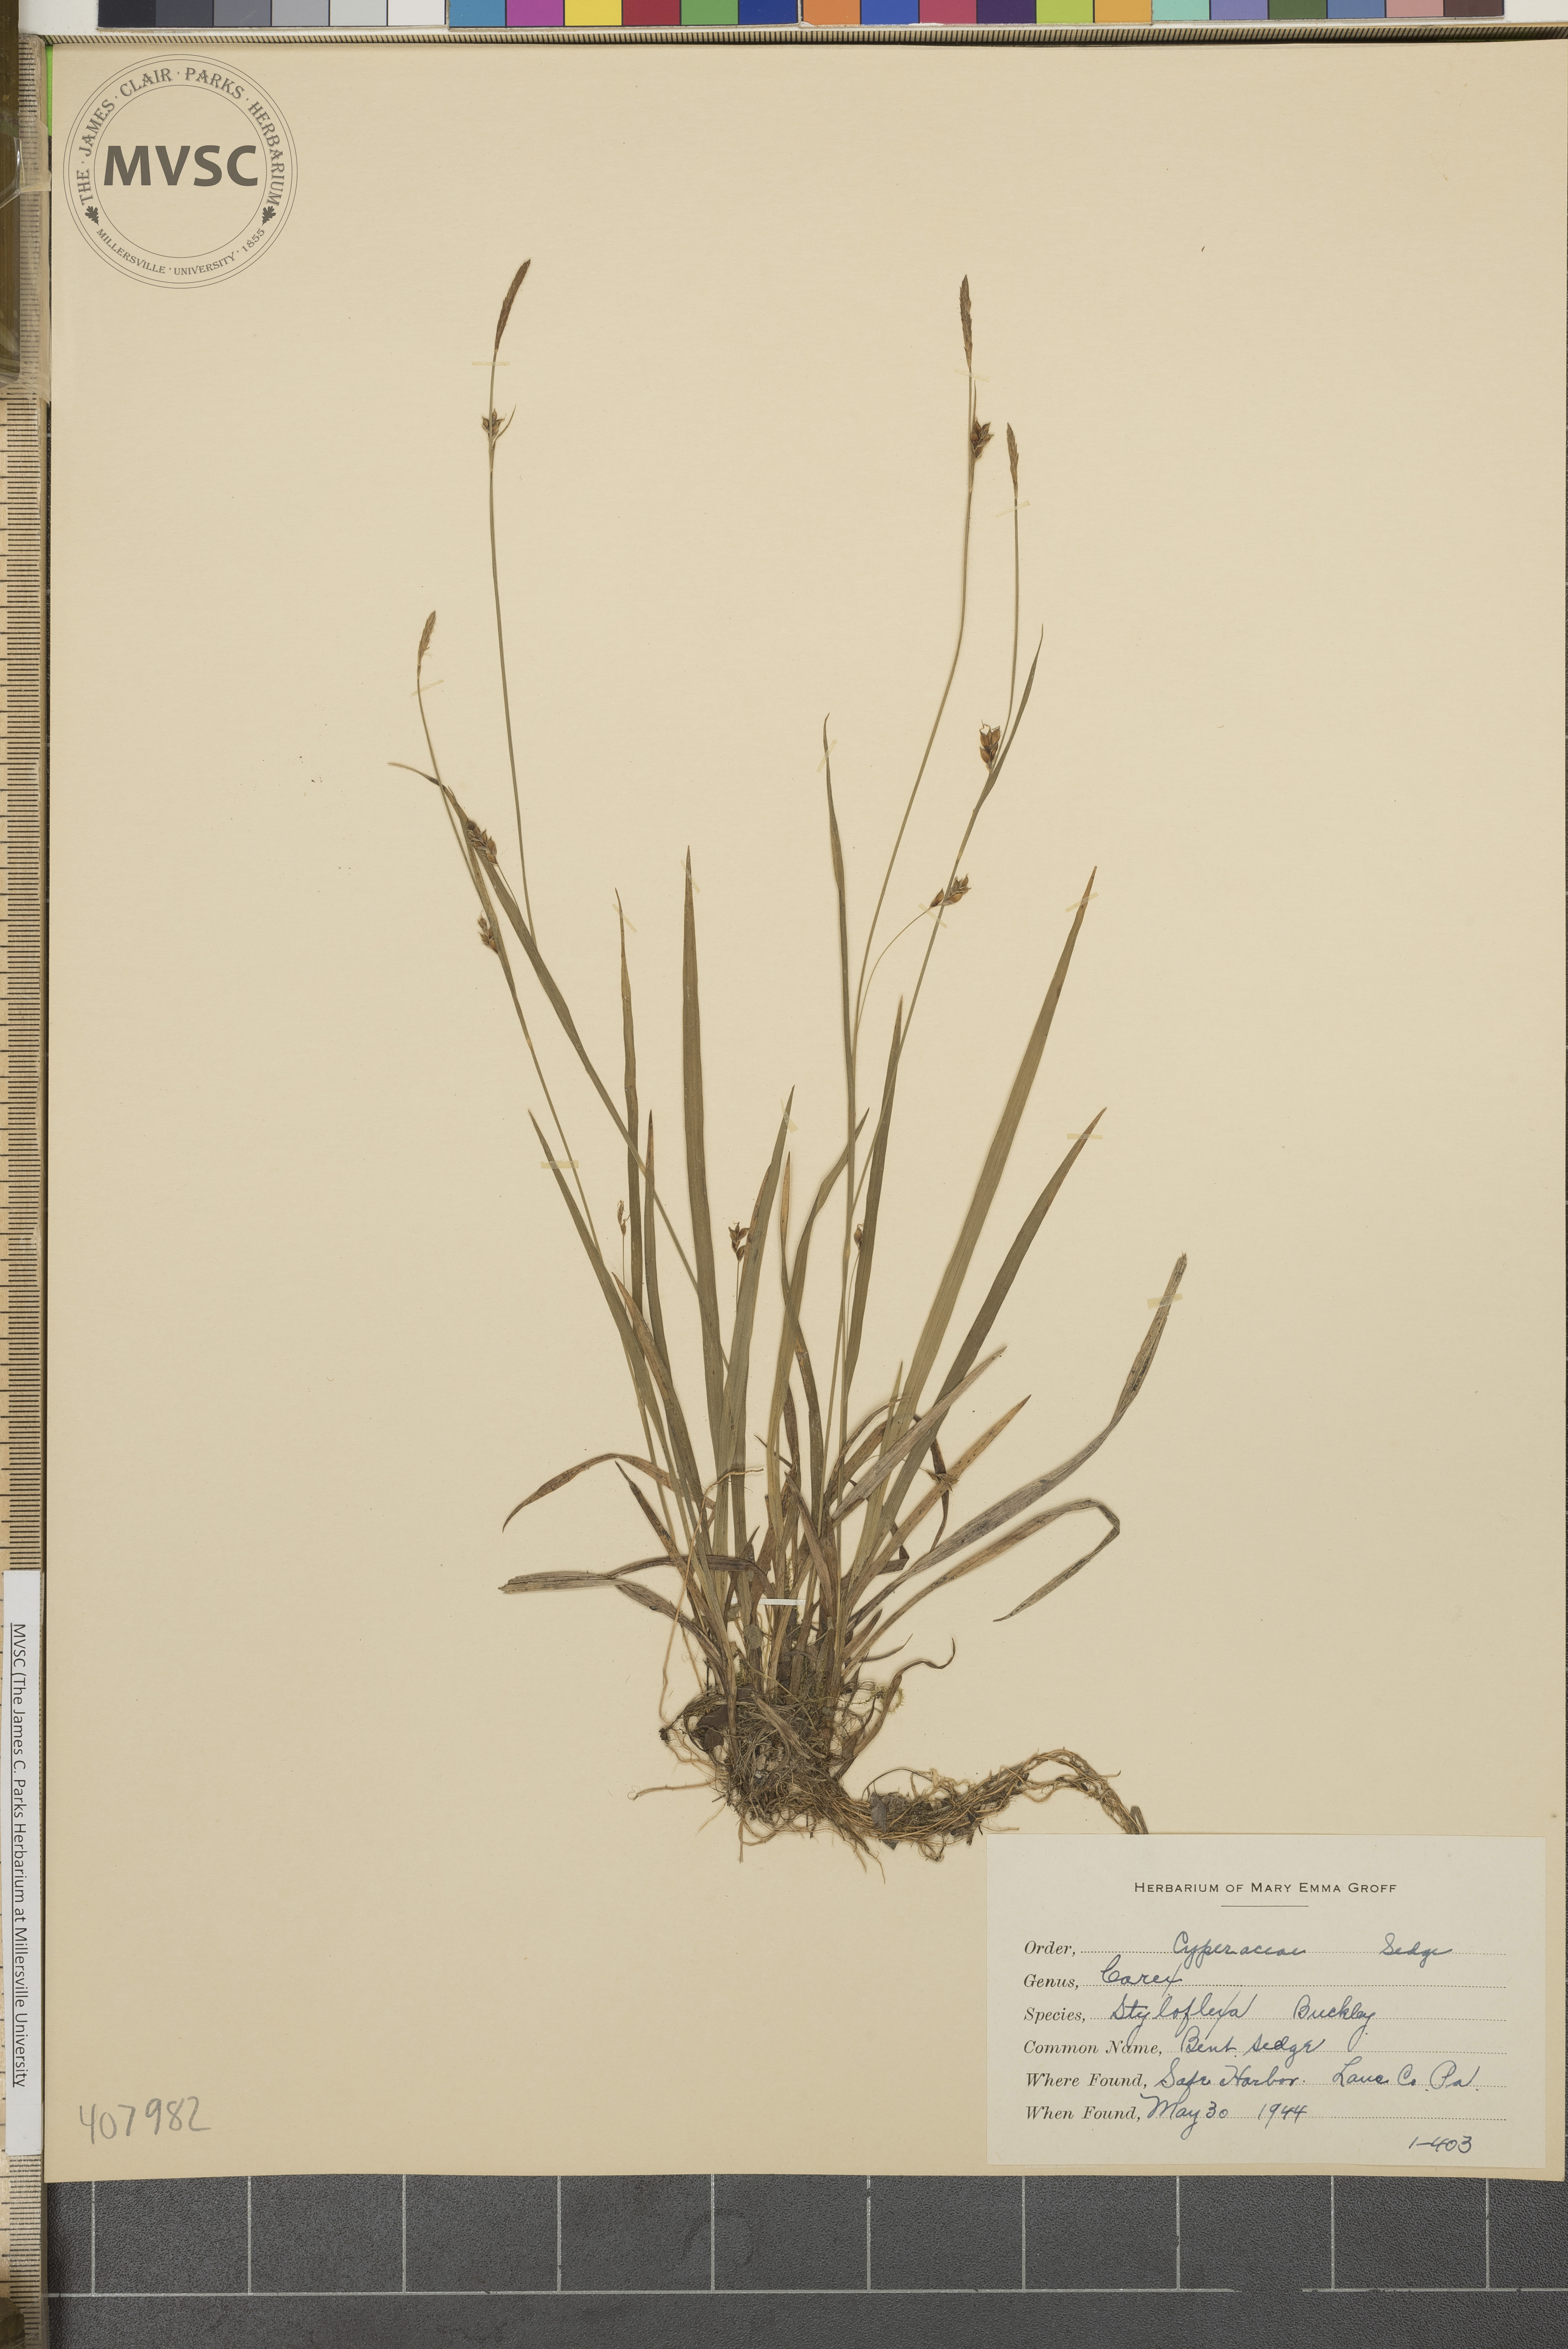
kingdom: Plantae
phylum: Tracheophyta
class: Liliopsida
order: Poales
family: Cyperaceae
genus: Carex
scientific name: Carex styloflexa
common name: Bent Sedge
